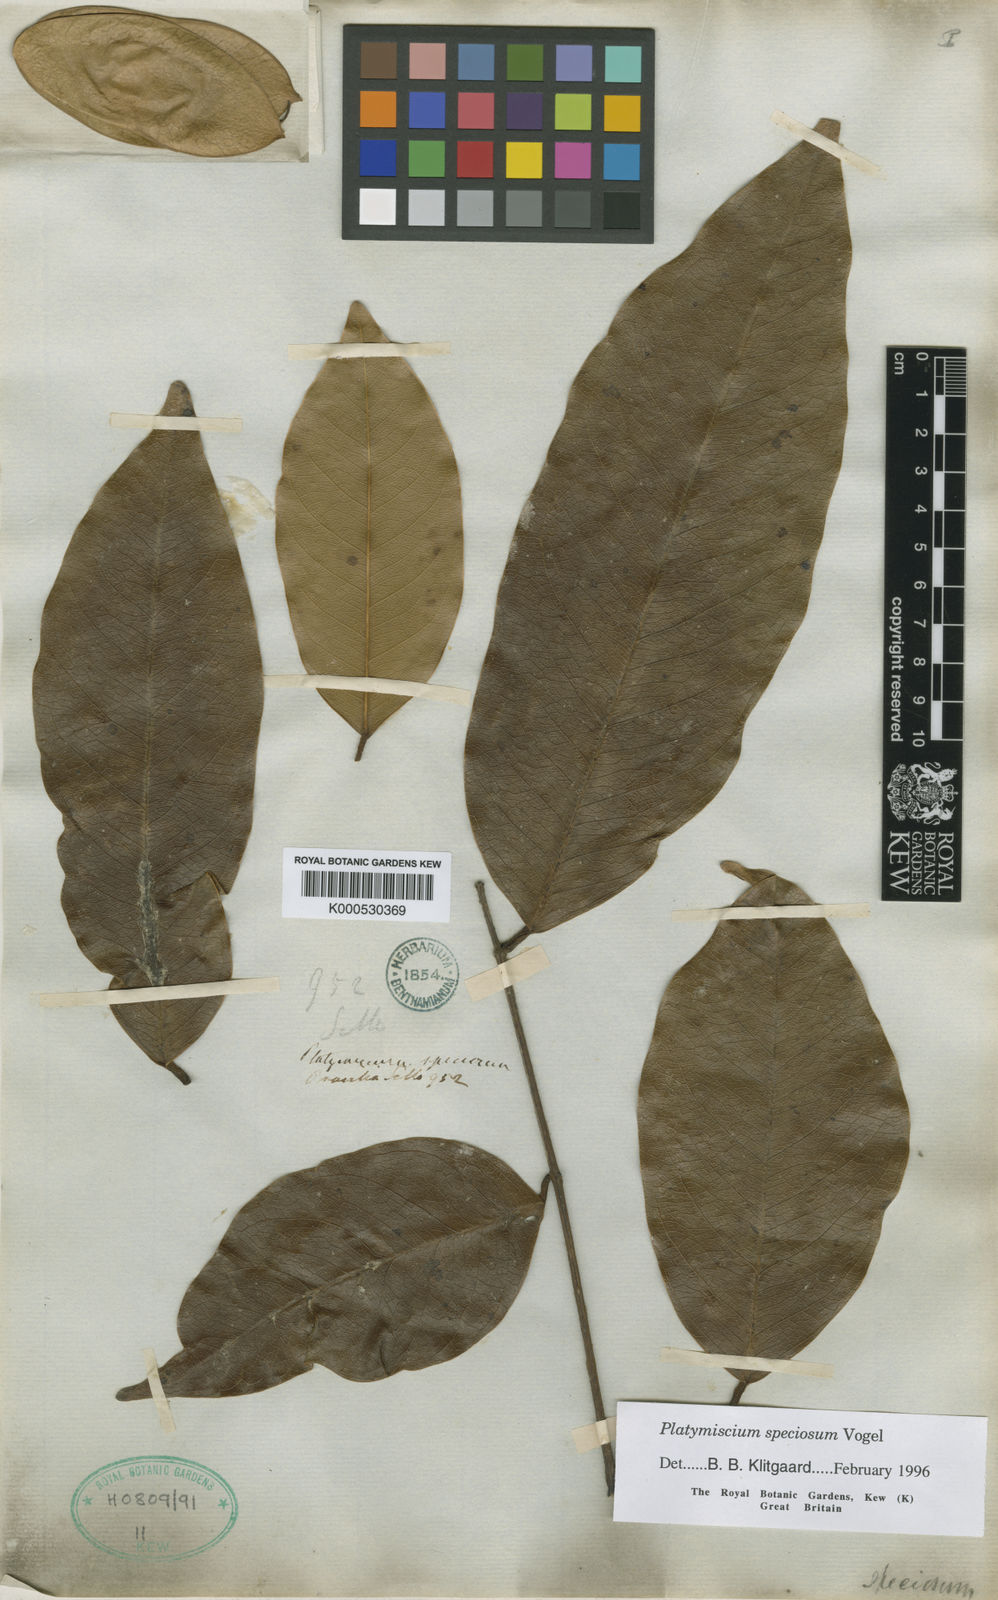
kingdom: Plantae
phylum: Tracheophyta
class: Magnoliopsida
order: Fabales
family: Fabaceae
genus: Platymiscium
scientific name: Platymiscium speciosum
